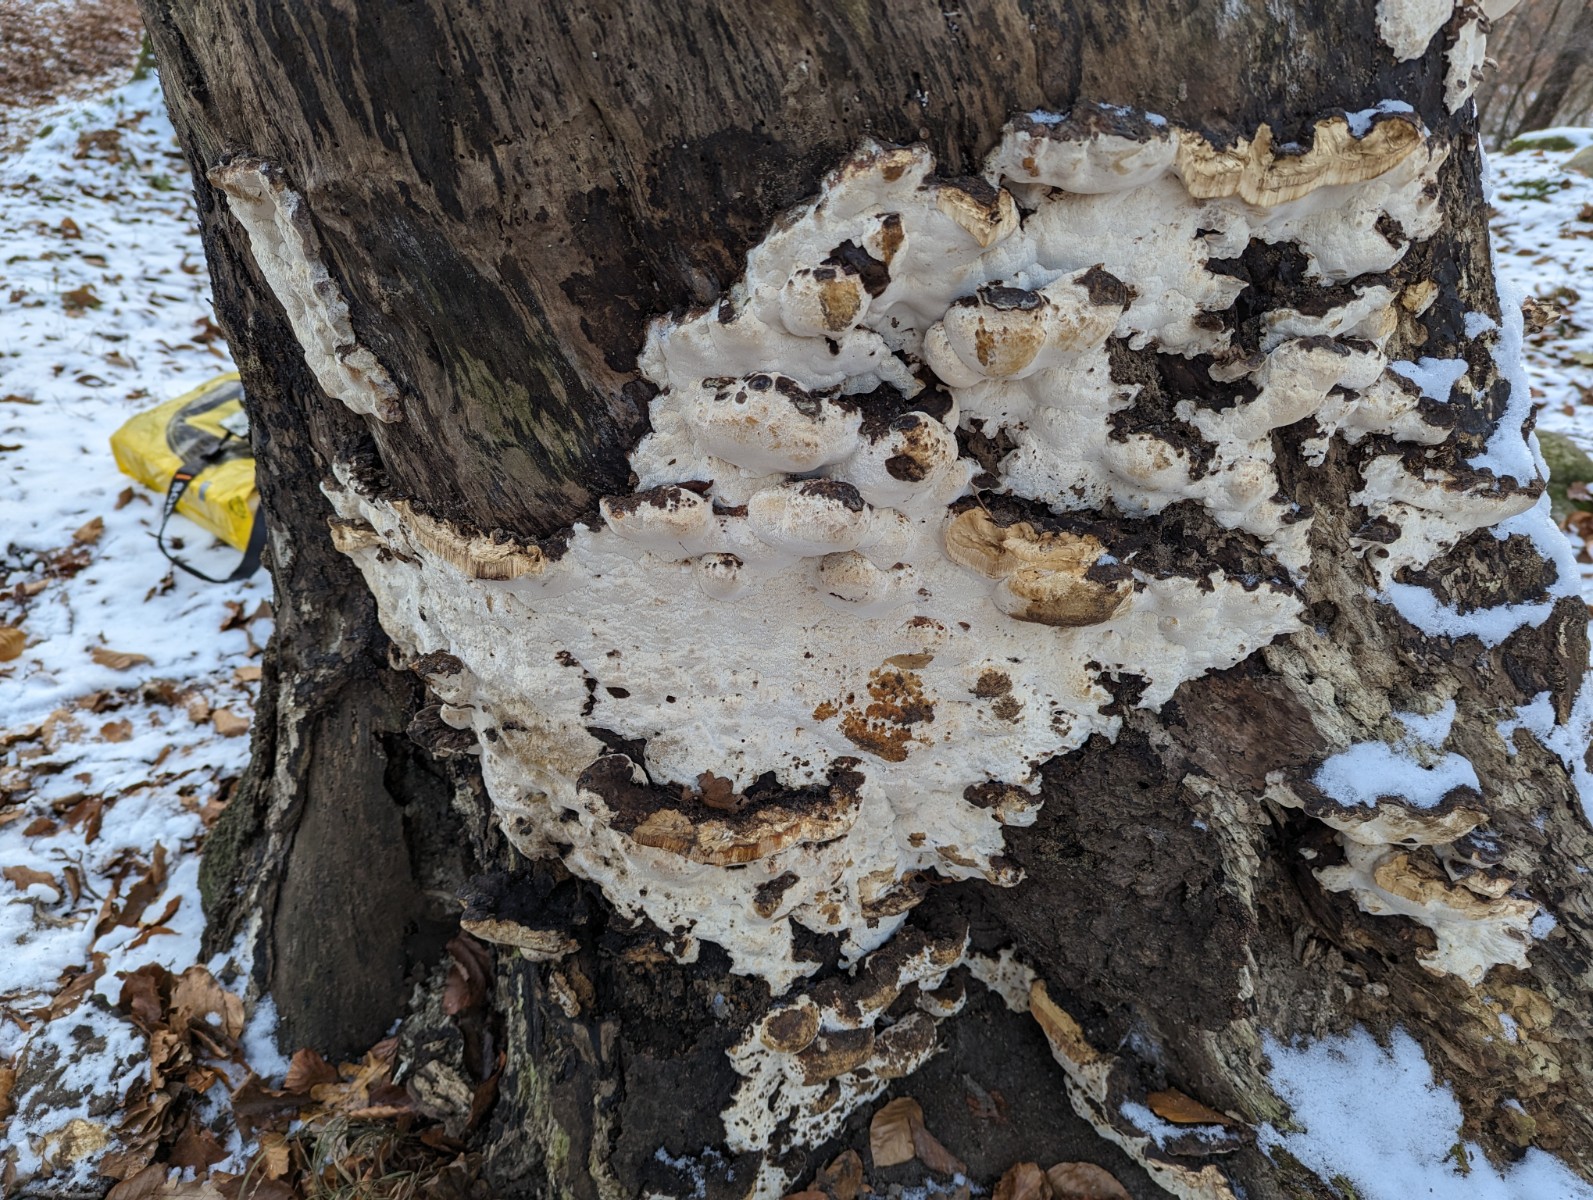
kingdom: Fungi
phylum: Basidiomycota
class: Agaricomycetes
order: Polyporales
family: Ischnodermataceae
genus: Ischnoderma
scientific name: Ischnoderma resinosum
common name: løv-tjæreporesvamp
